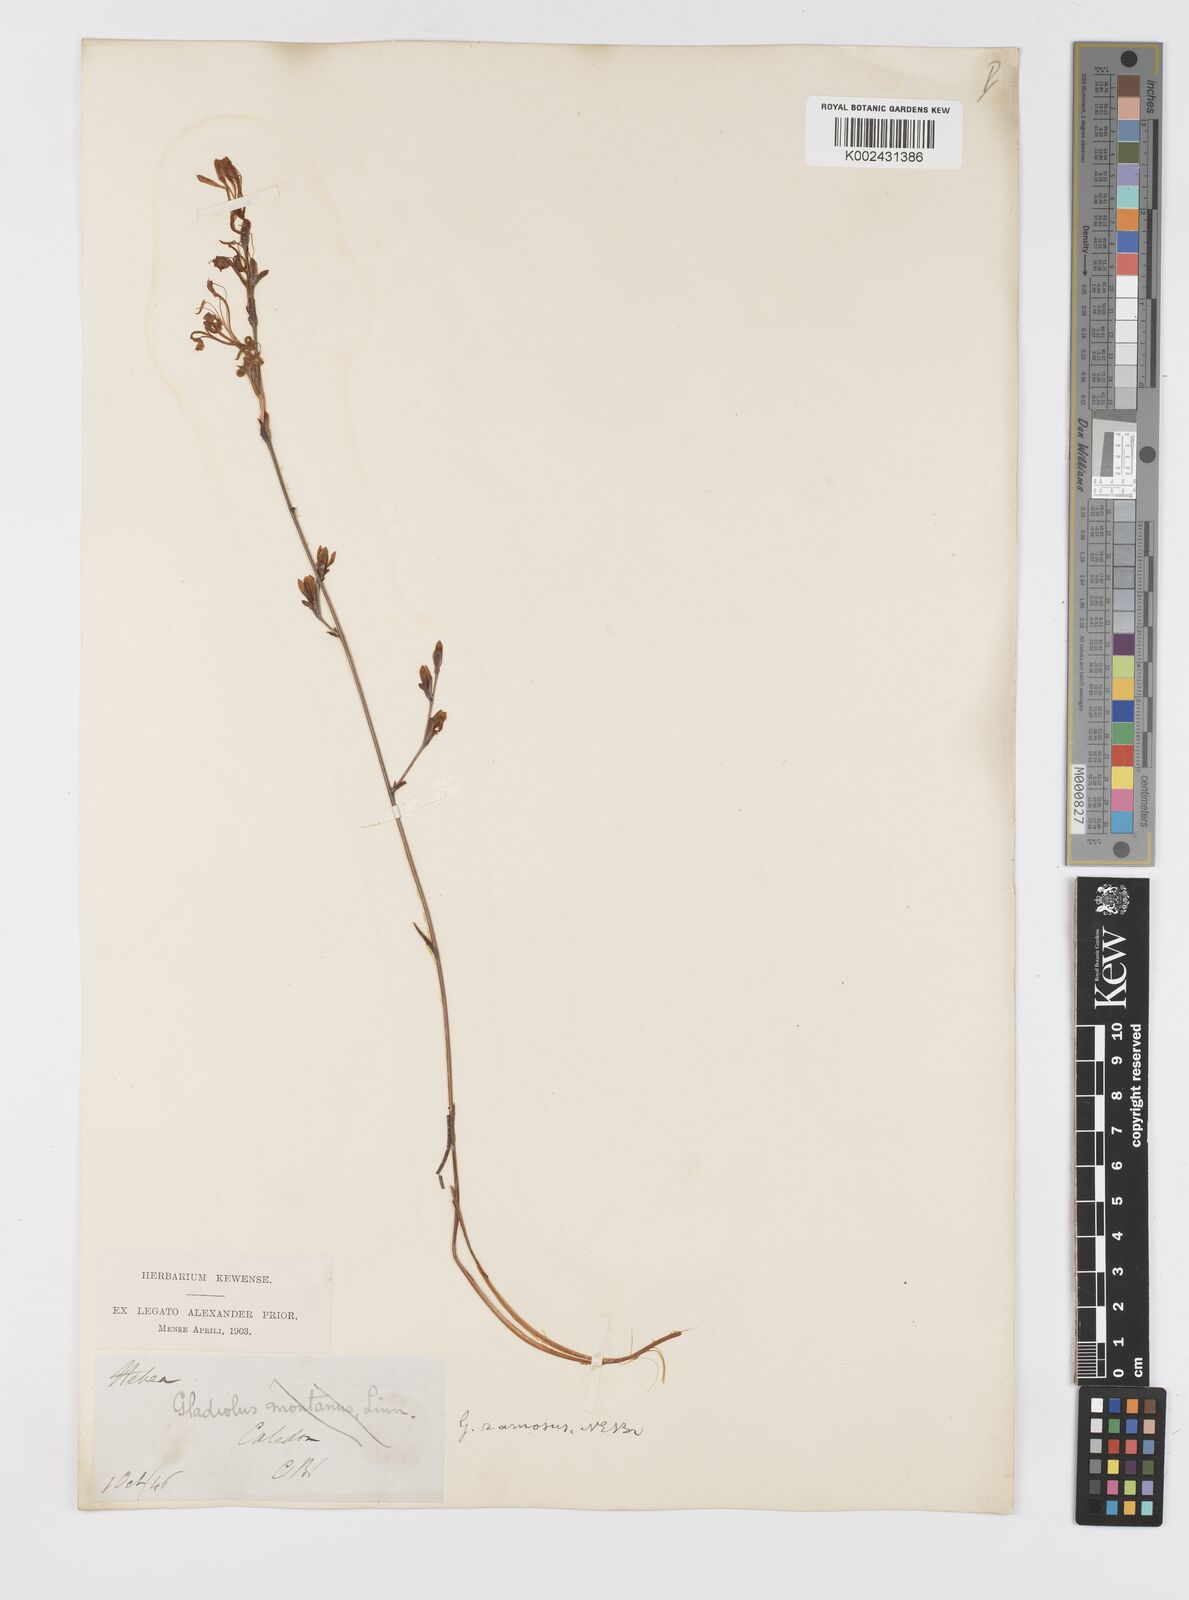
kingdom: Plantae
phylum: Tracheophyta
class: Liliopsida
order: Asparagales
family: Iridaceae
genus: Tritoniopsis
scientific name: Tritoniopsis ramosa
